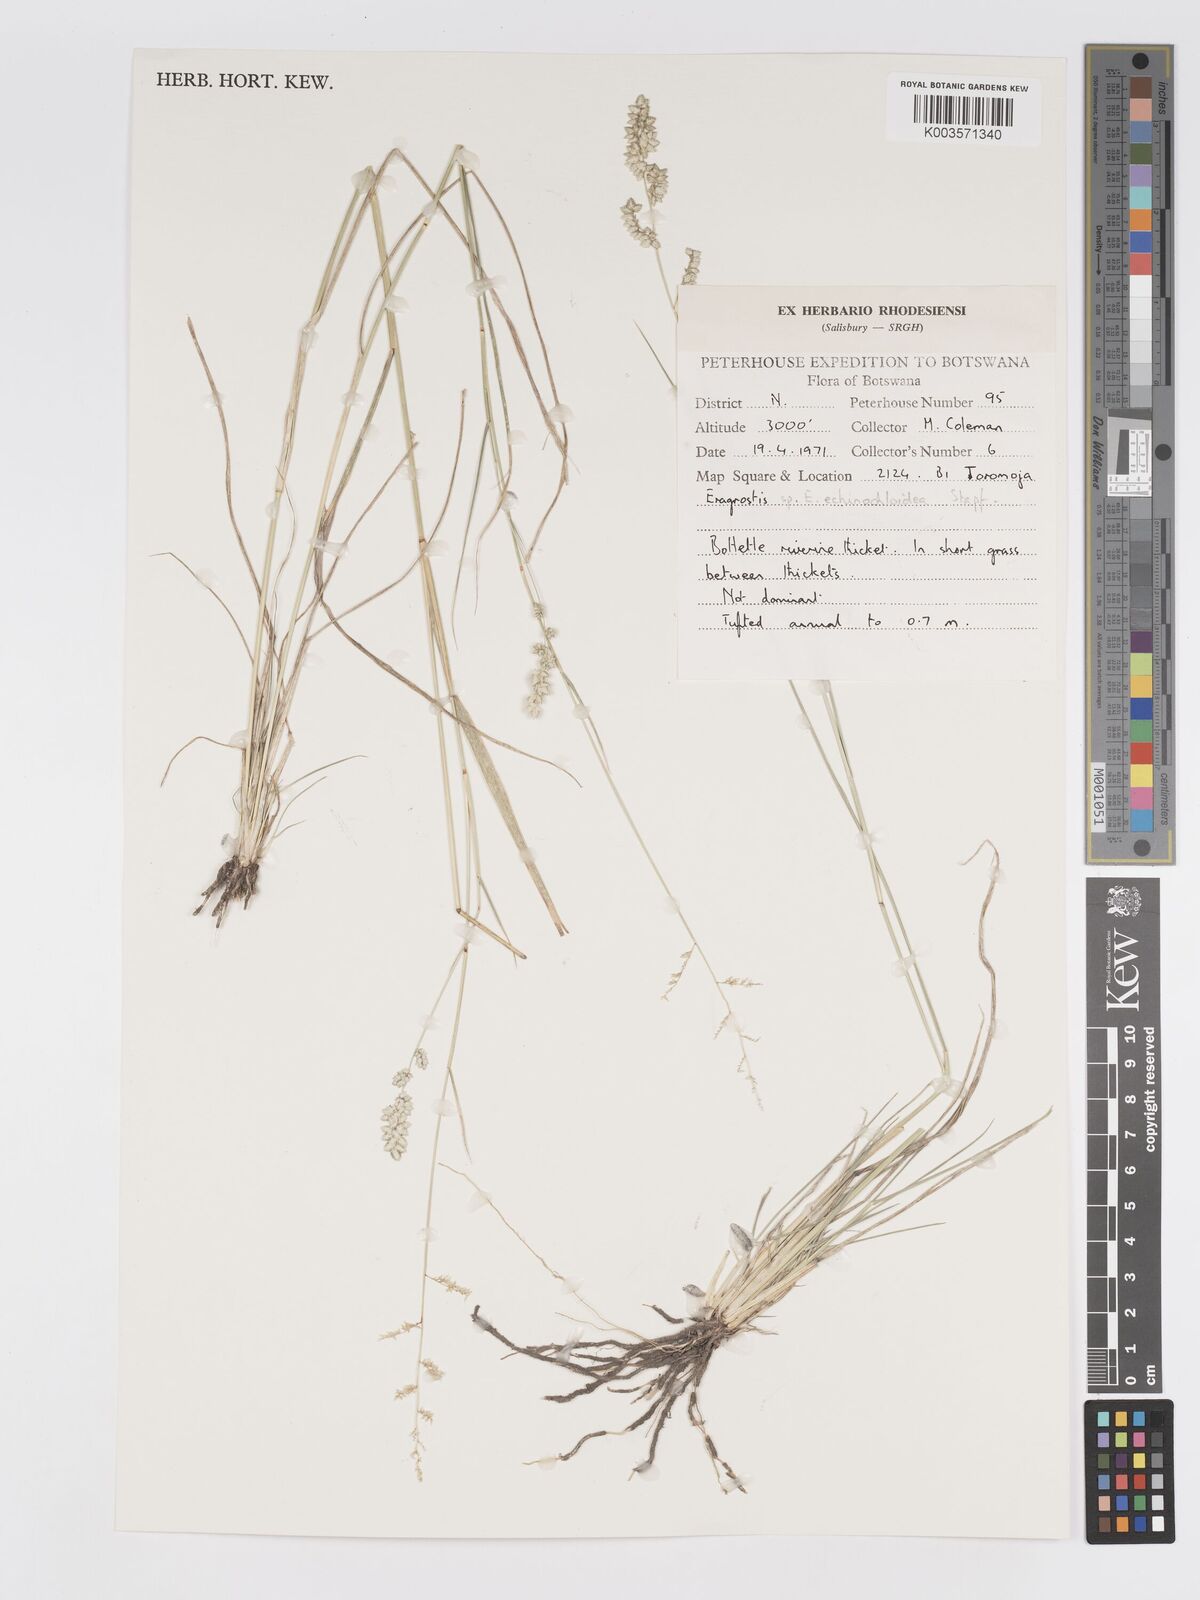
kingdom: Plantae
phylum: Tracheophyta
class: Liliopsida
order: Poales
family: Poaceae
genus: Eragrostis
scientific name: Eragrostis echinochloidea
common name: African lovegrass
